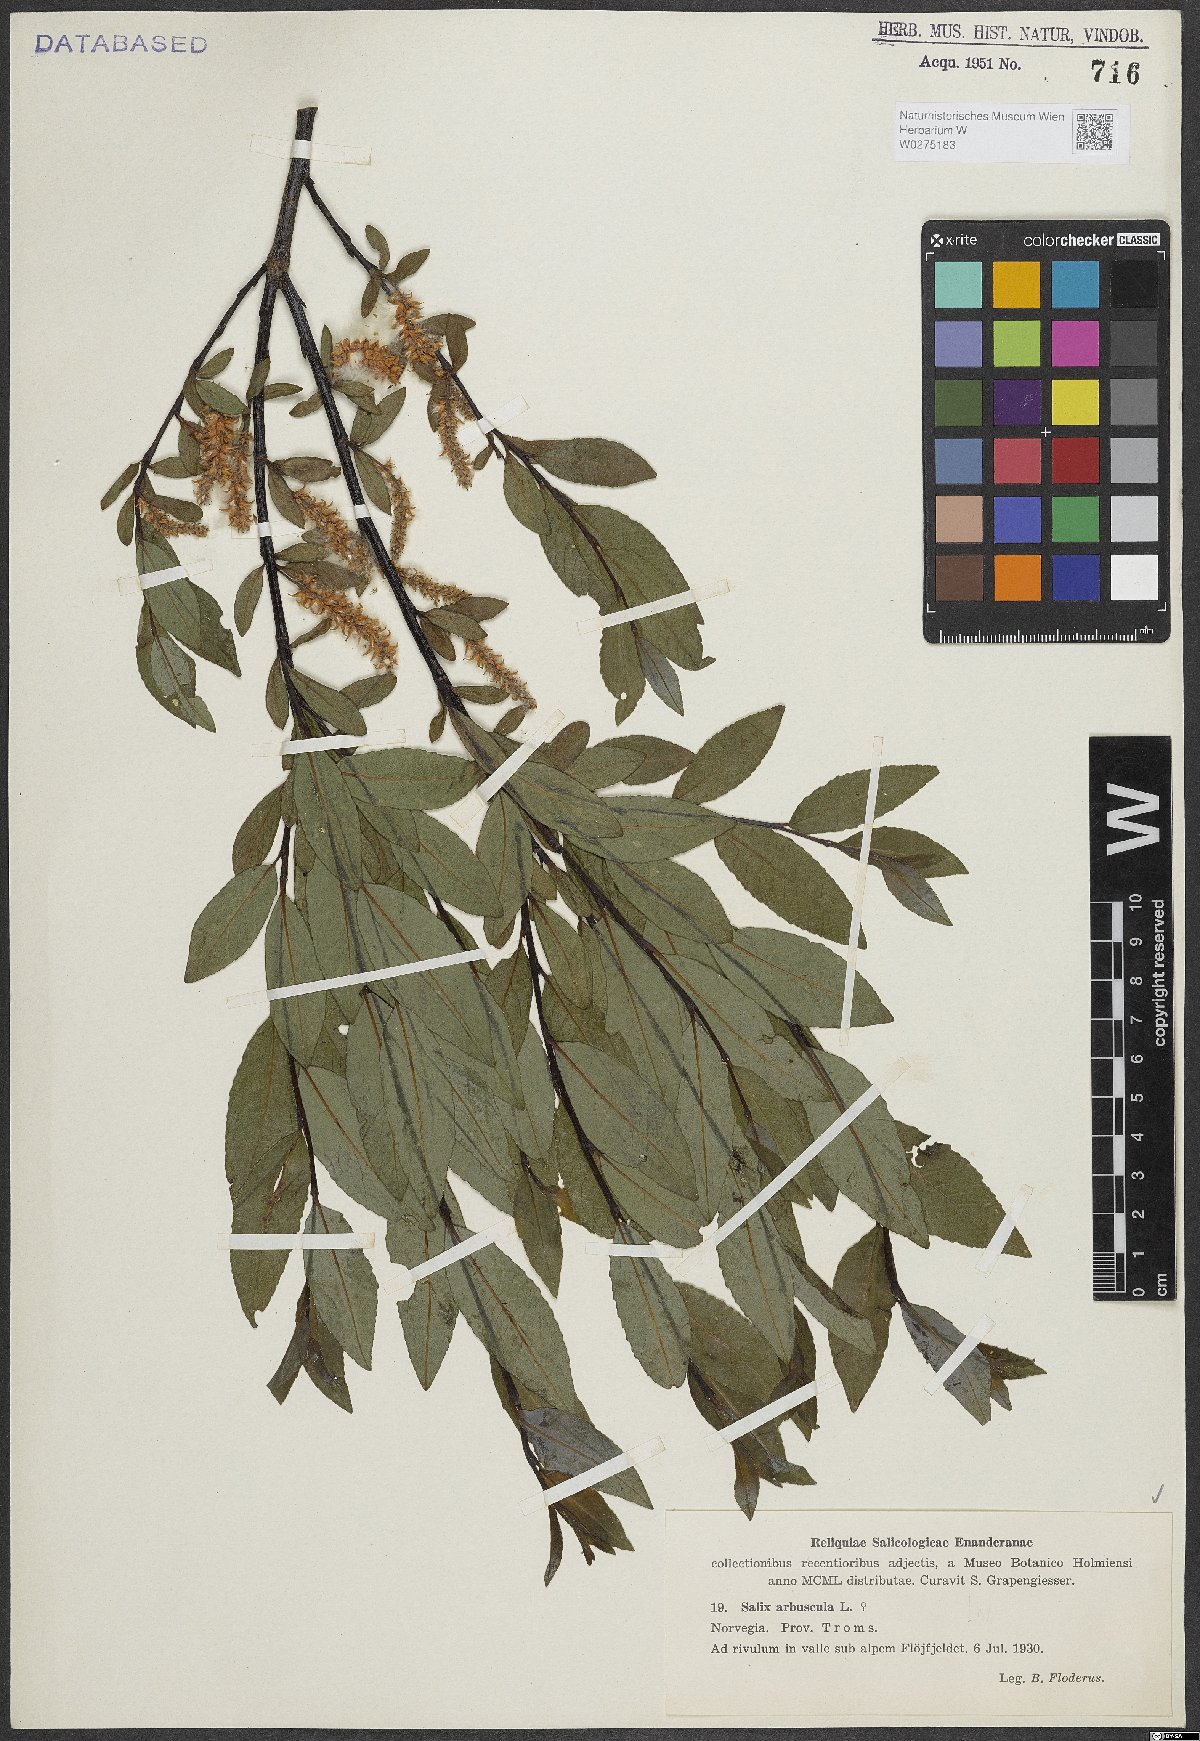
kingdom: Plantae
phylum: Tracheophyta
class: Magnoliopsida
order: Malpighiales
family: Salicaceae
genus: Salix
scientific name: Salix arbuscula
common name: Mountain willow
